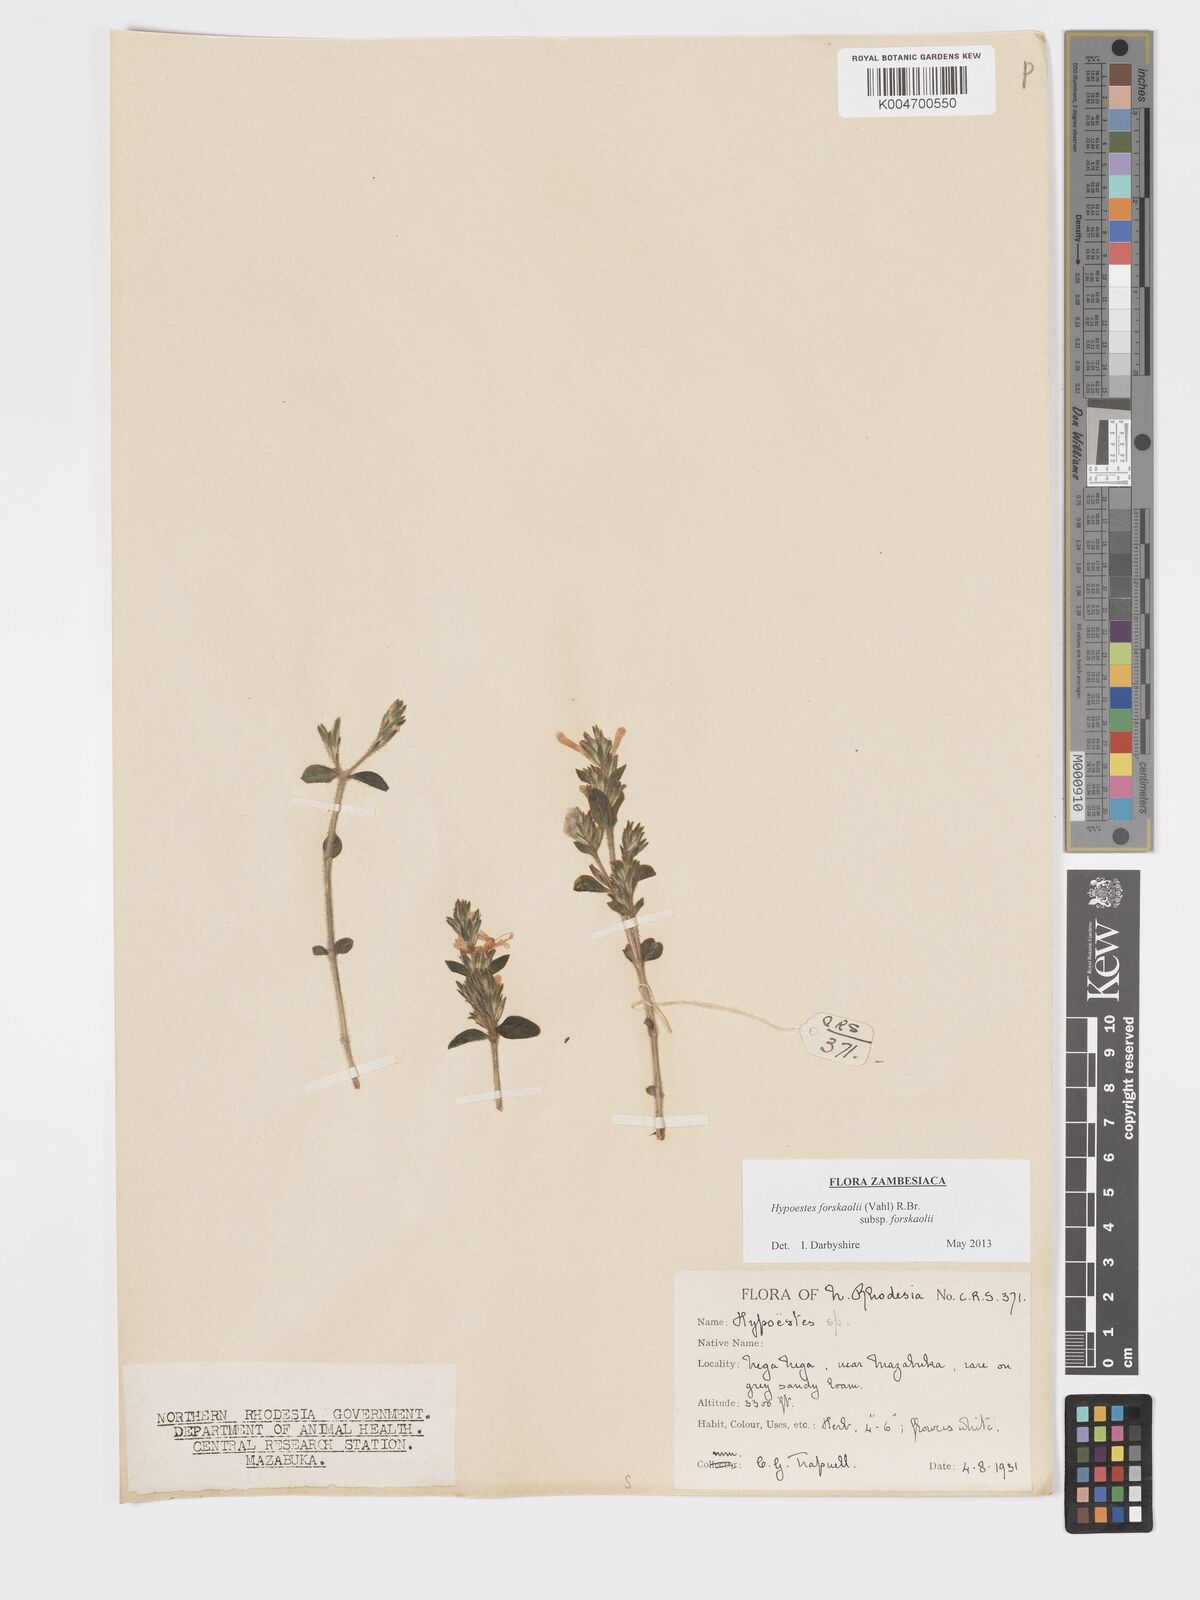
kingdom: Plantae
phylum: Tracheophyta
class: Magnoliopsida
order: Lamiales
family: Acanthaceae
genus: Hypoestes
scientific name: Hypoestes forskaolii
